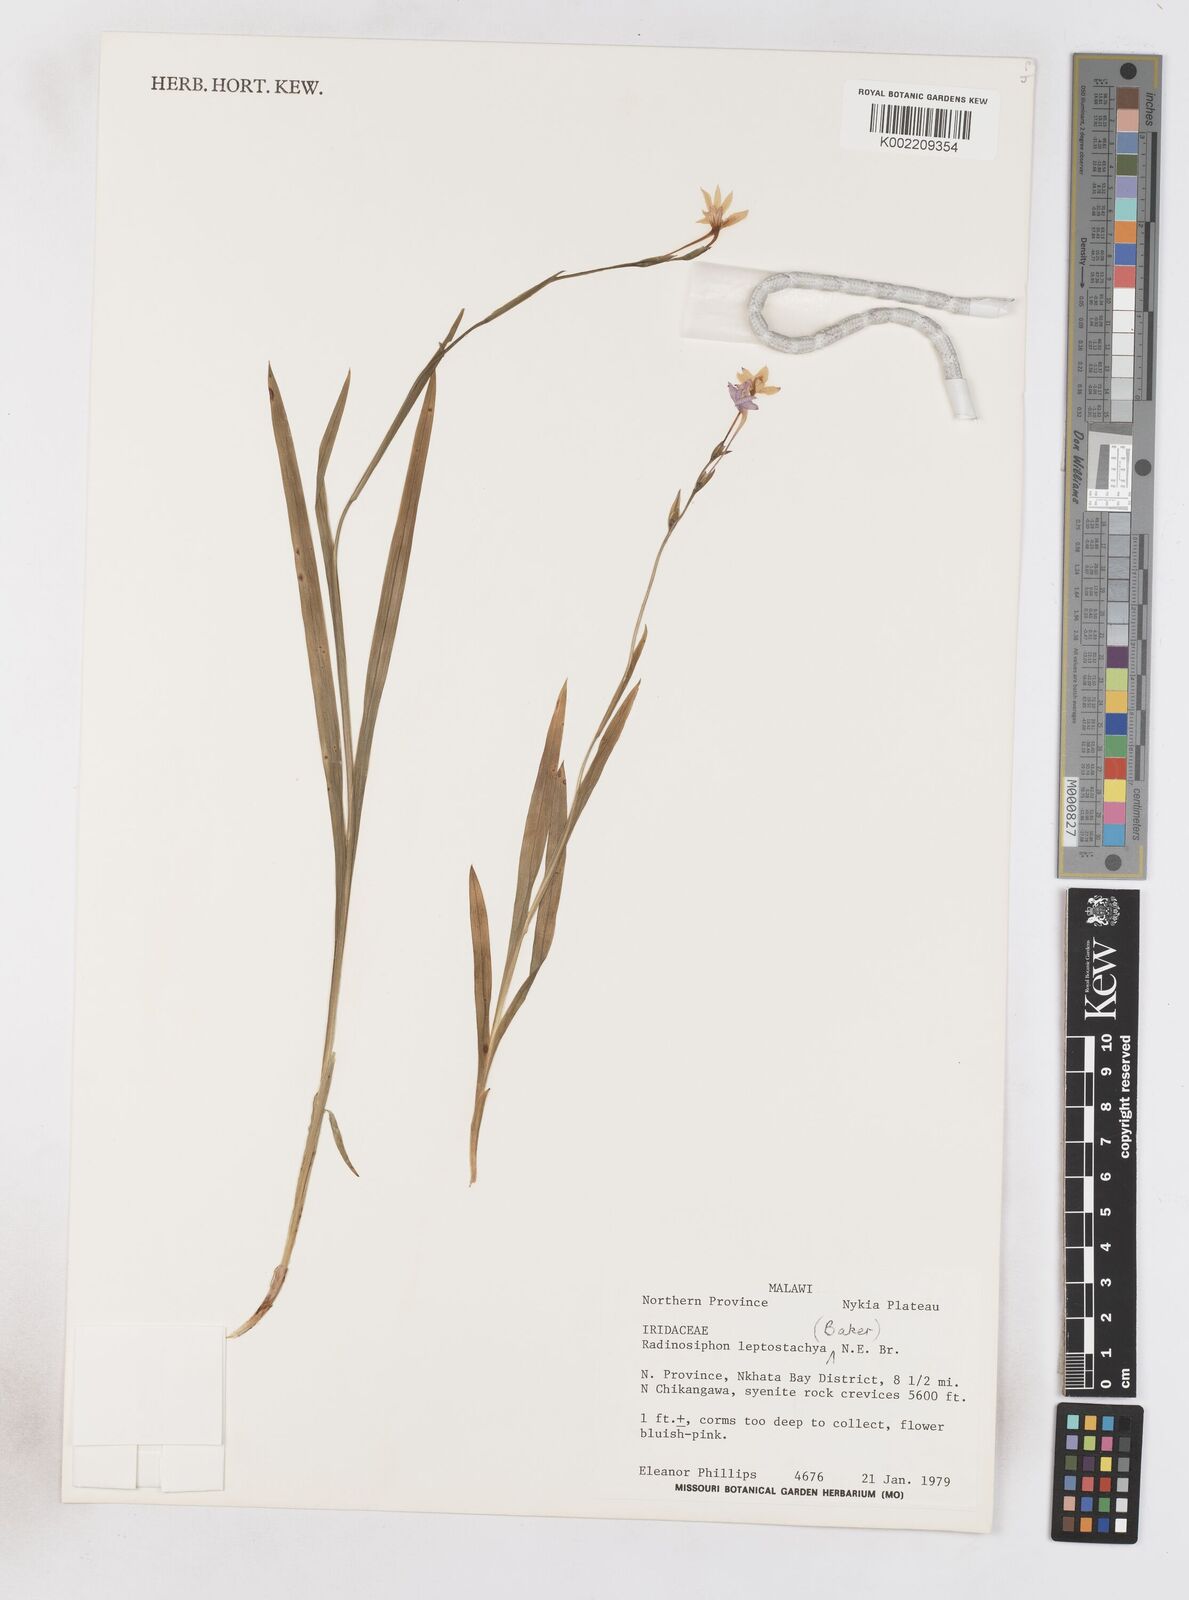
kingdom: Plantae
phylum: Tracheophyta
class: Liliopsida
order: Asparagales
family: Iridaceae
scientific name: Iridaceae
